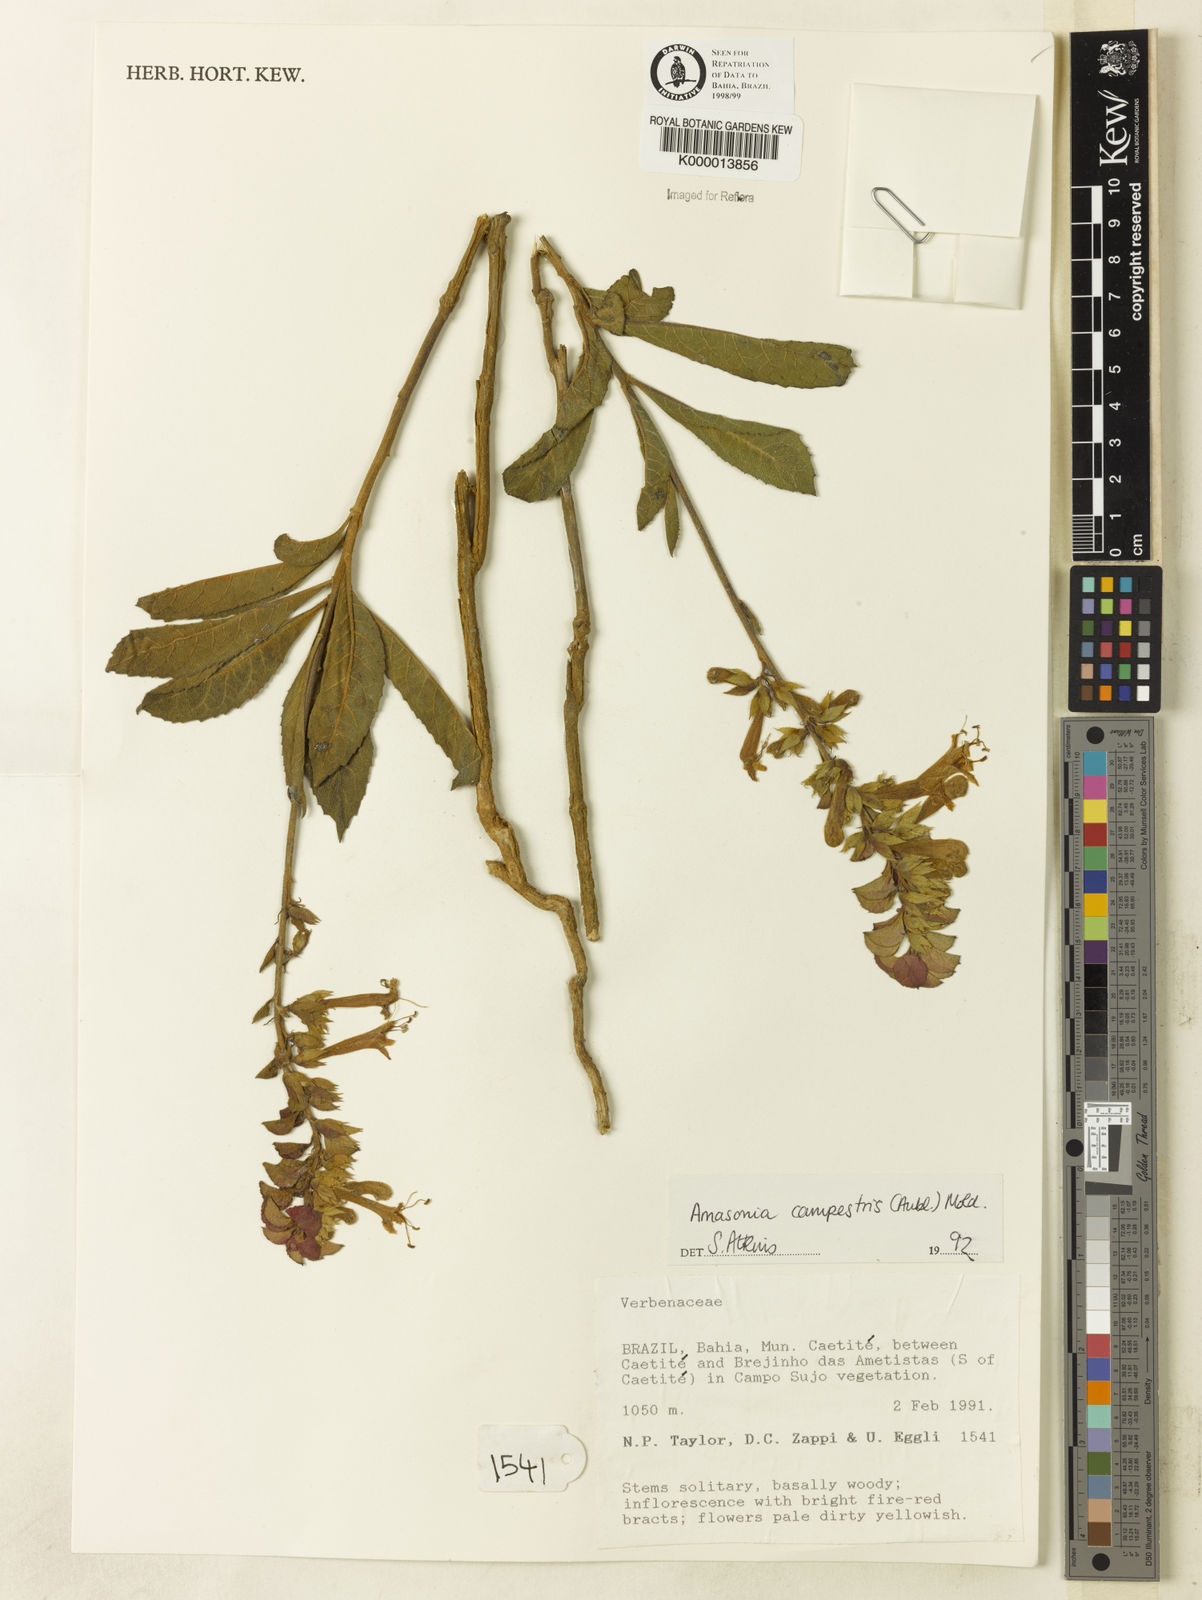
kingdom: Plantae
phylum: Tracheophyta
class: Magnoliopsida
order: Lamiales
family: Lamiaceae
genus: Amasonia
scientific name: Amasonia campestris
